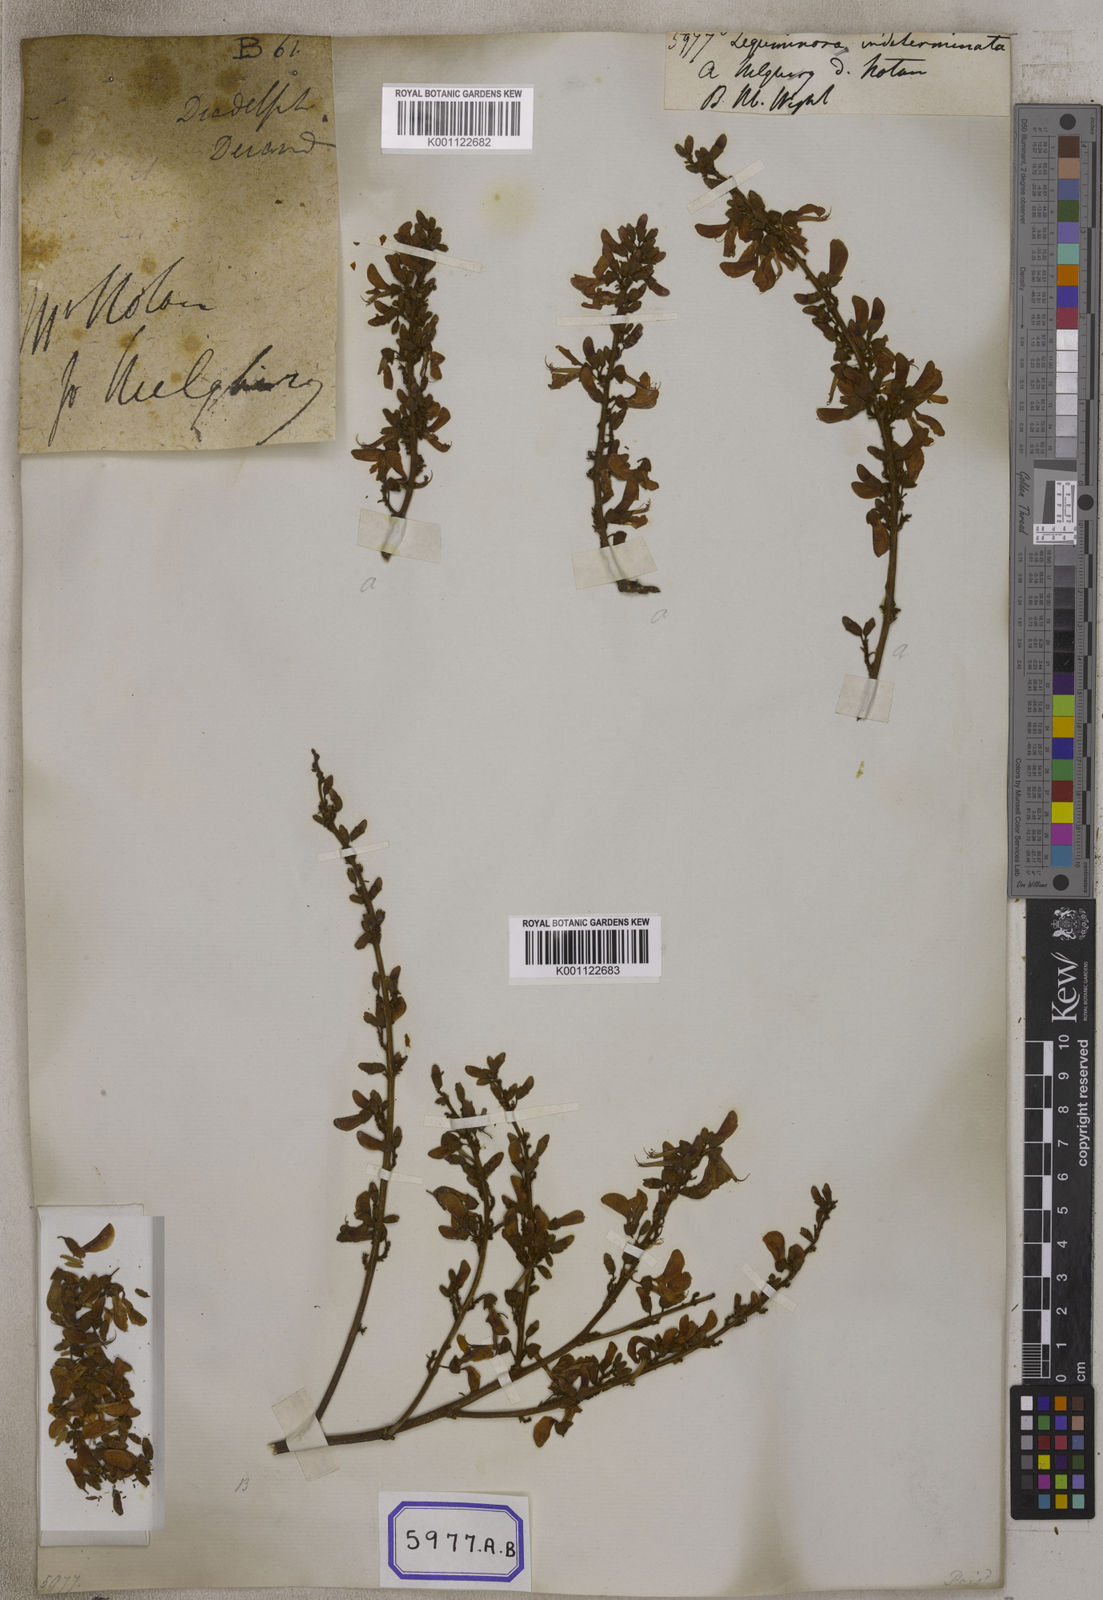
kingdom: Plantae
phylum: Tracheophyta
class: Magnoliopsida
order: Fabales
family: Fabaceae
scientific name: Fabaceae
